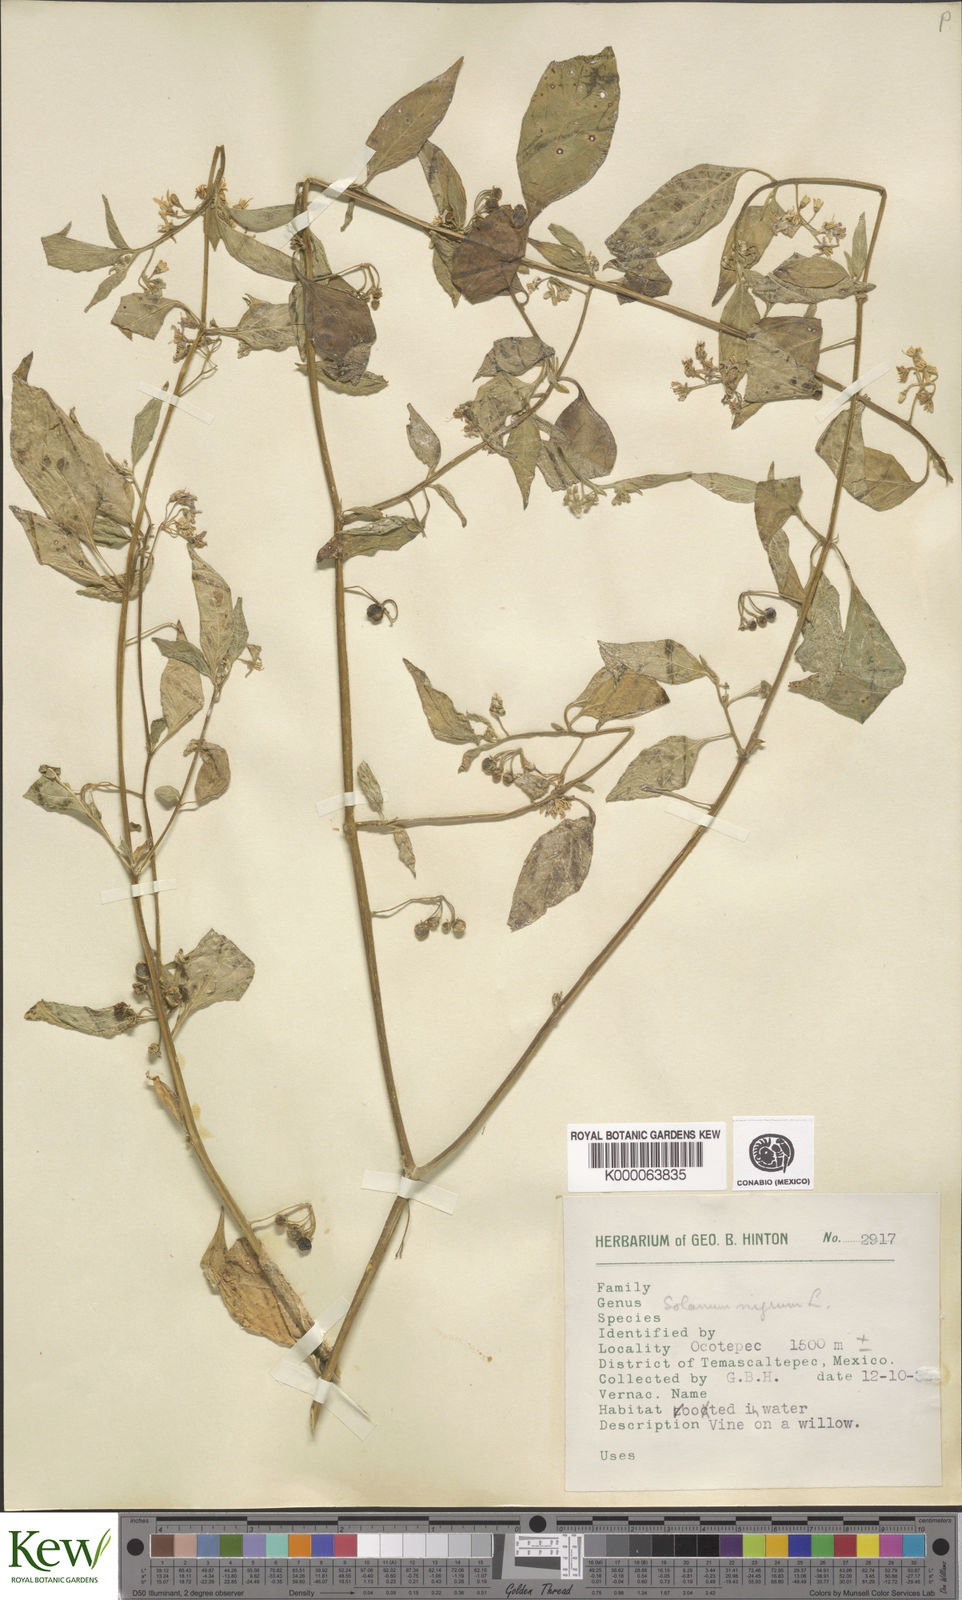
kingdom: Plantae
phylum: Tracheophyta
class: Magnoliopsida
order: Solanales
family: Solanaceae
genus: Solanum
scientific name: Solanum nigrum
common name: Black nightshade
